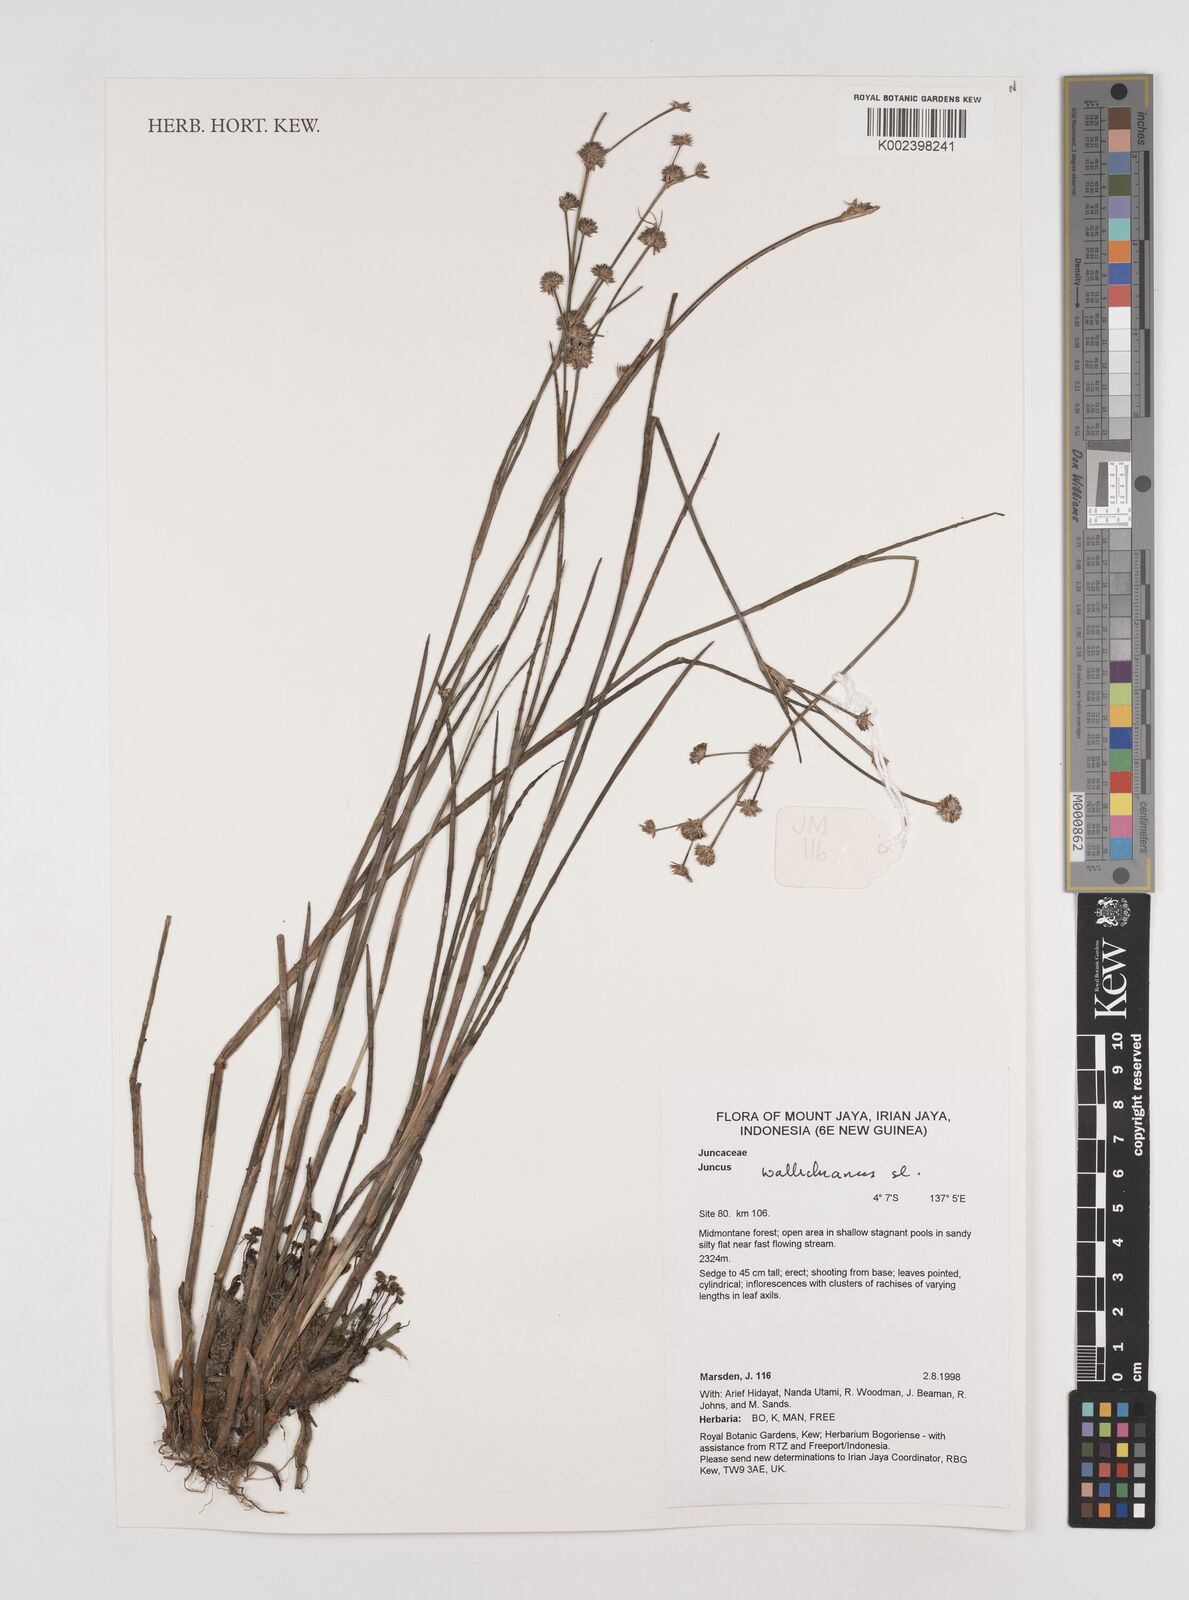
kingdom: Plantae
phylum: Tracheophyta
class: Liliopsida
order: Poales
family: Juncaceae
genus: Juncus
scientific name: Juncus wallichianus
